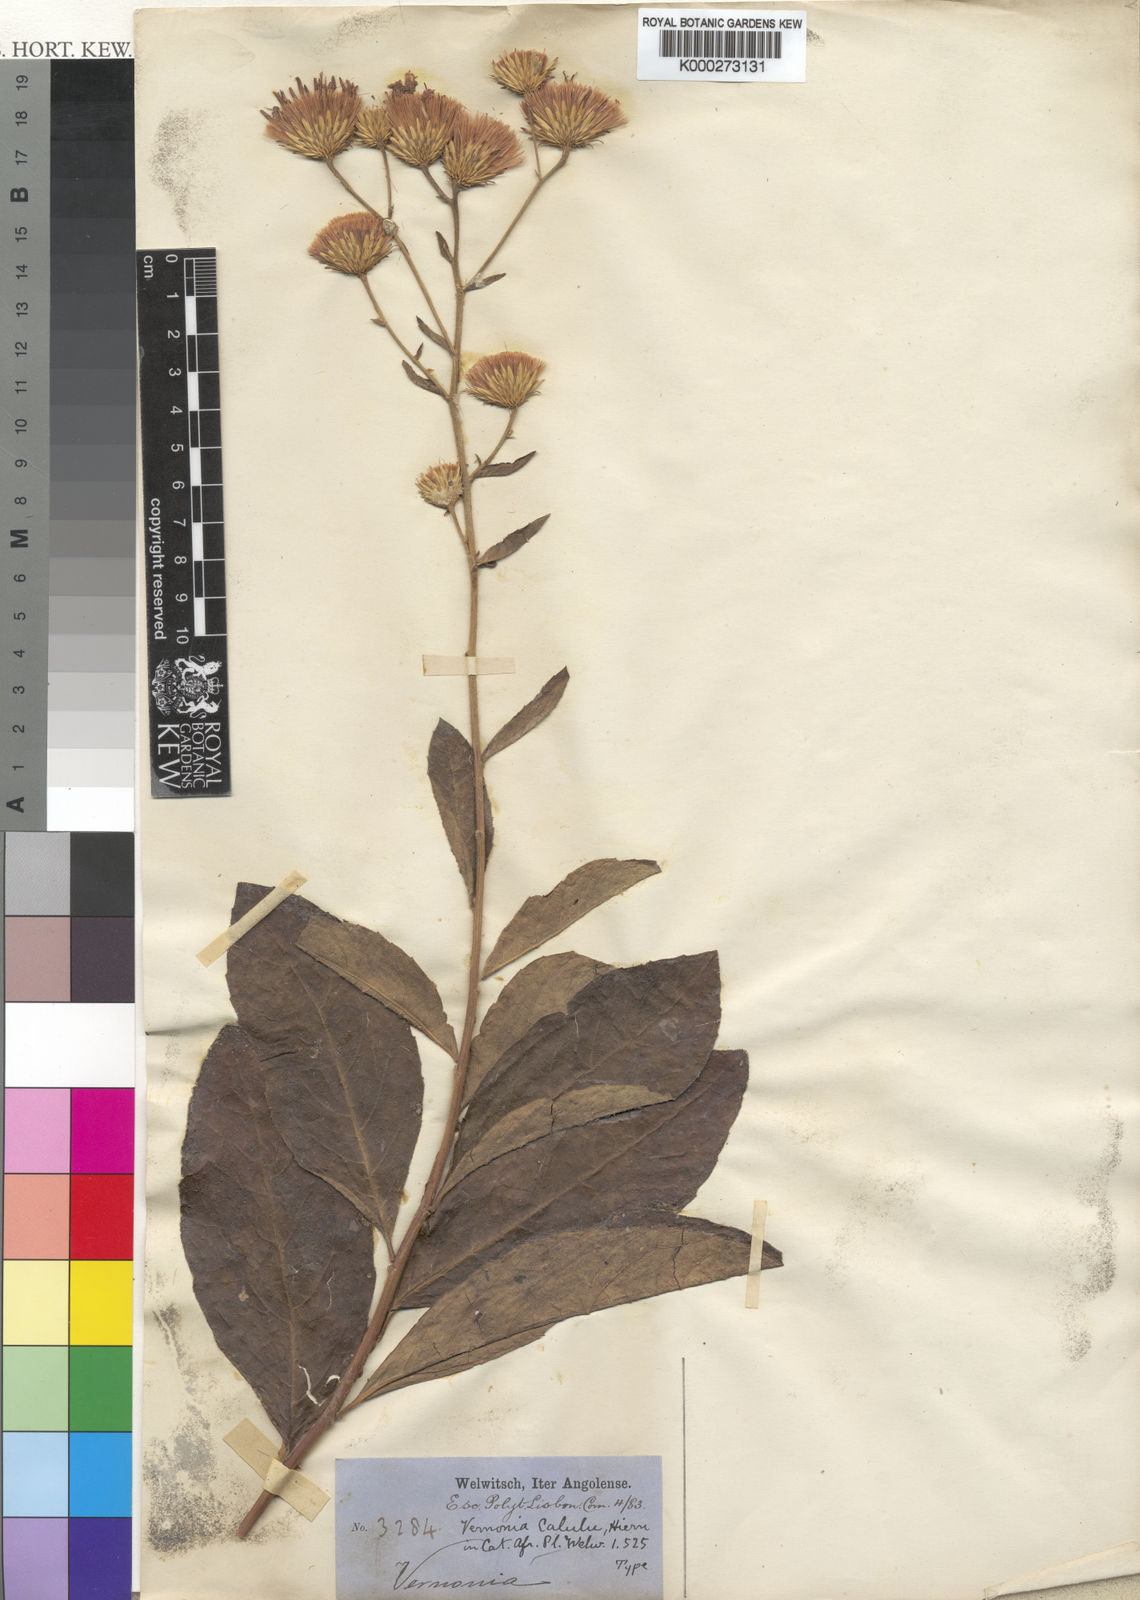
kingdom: Plantae
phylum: Tracheophyta
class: Magnoliopsida
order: Asterales
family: Asteraceae
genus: Vernonia
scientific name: Vernonia calulu
